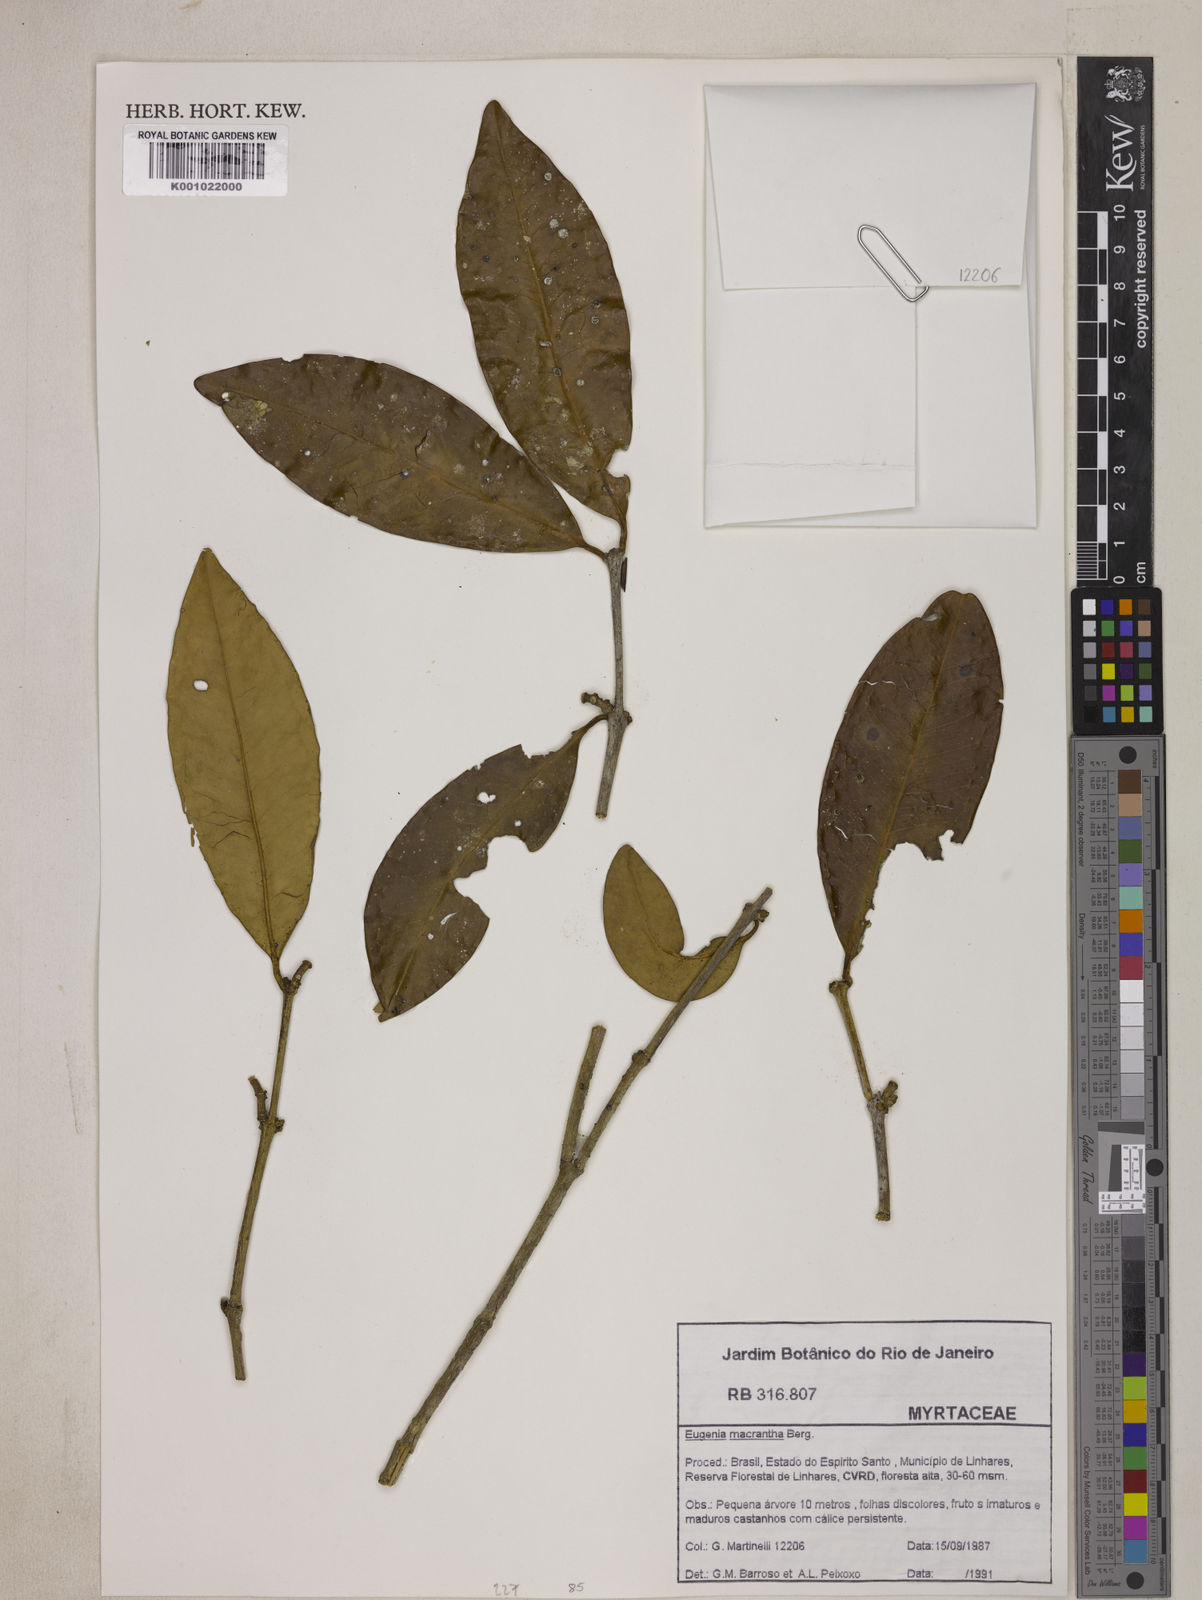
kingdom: Plantae
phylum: Tracheophyta
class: Magnoliopsida
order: Myrtales
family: Myrtaceae
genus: Eugenia
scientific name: Eugenia macrantha
